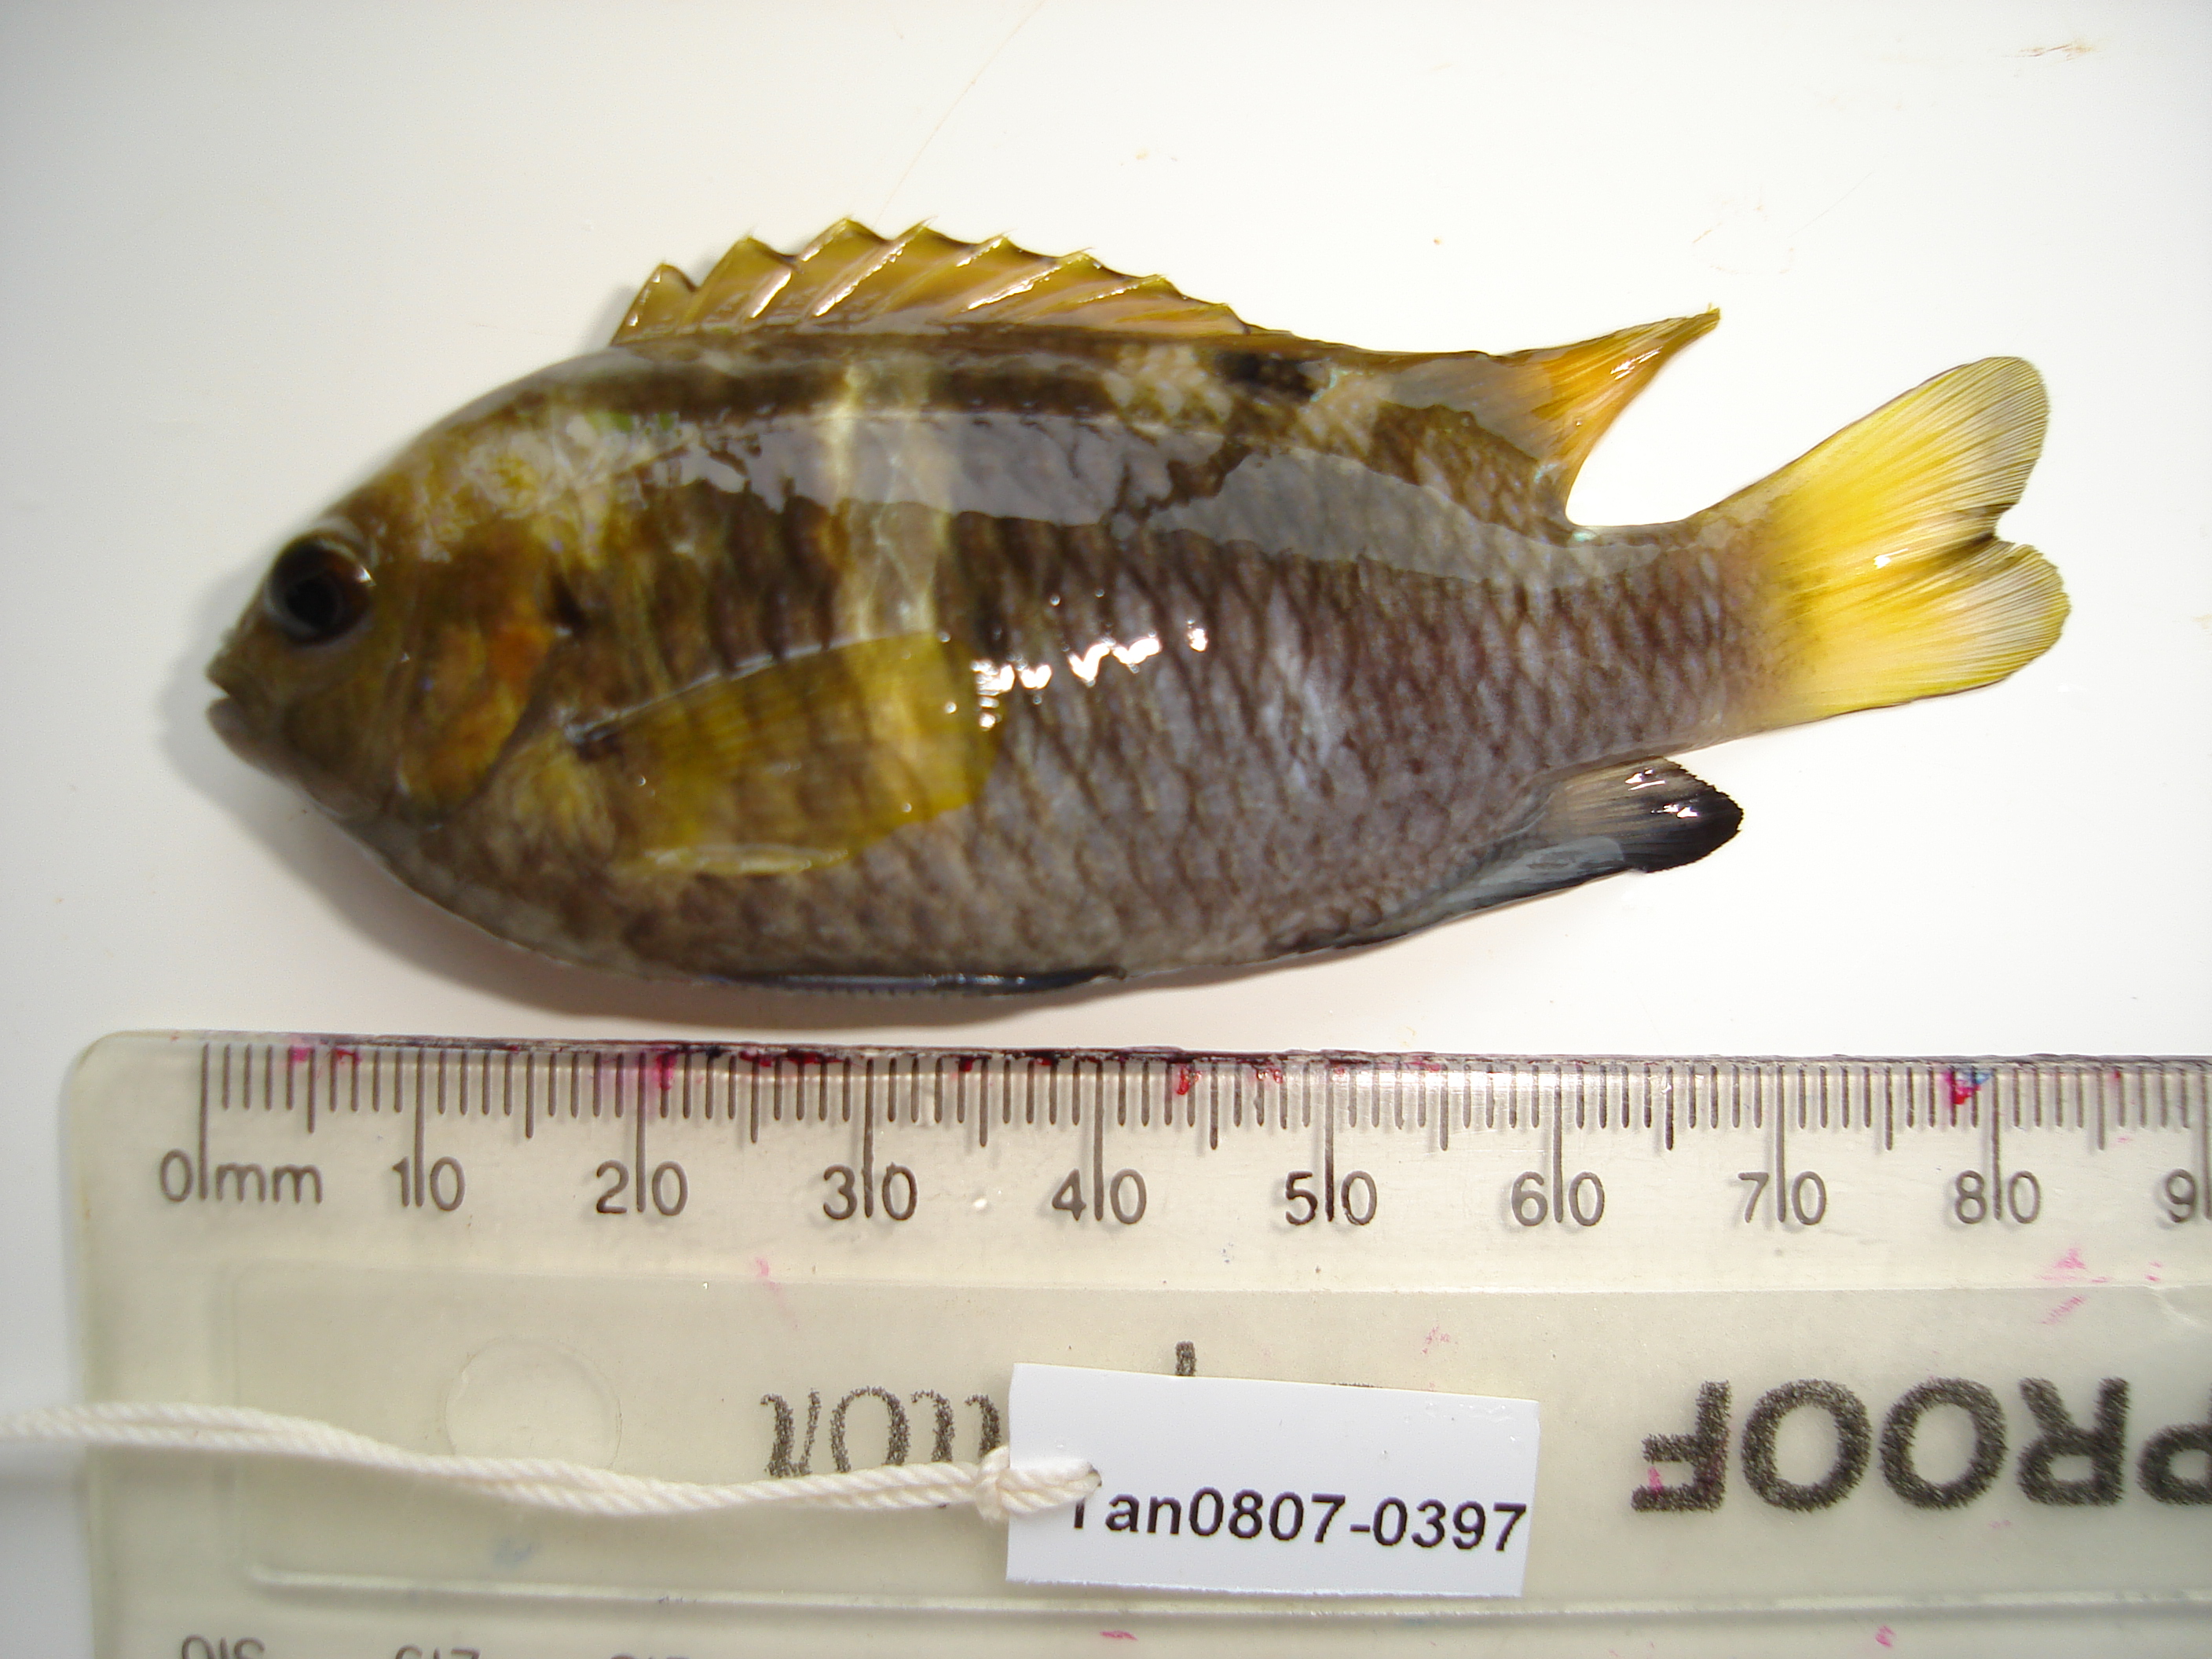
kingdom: Animalia
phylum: Chordata
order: Perciformes
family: Pomacentridae
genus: Chrysiptera
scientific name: Chrysiptera biocellata
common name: Twinspot damselfish
